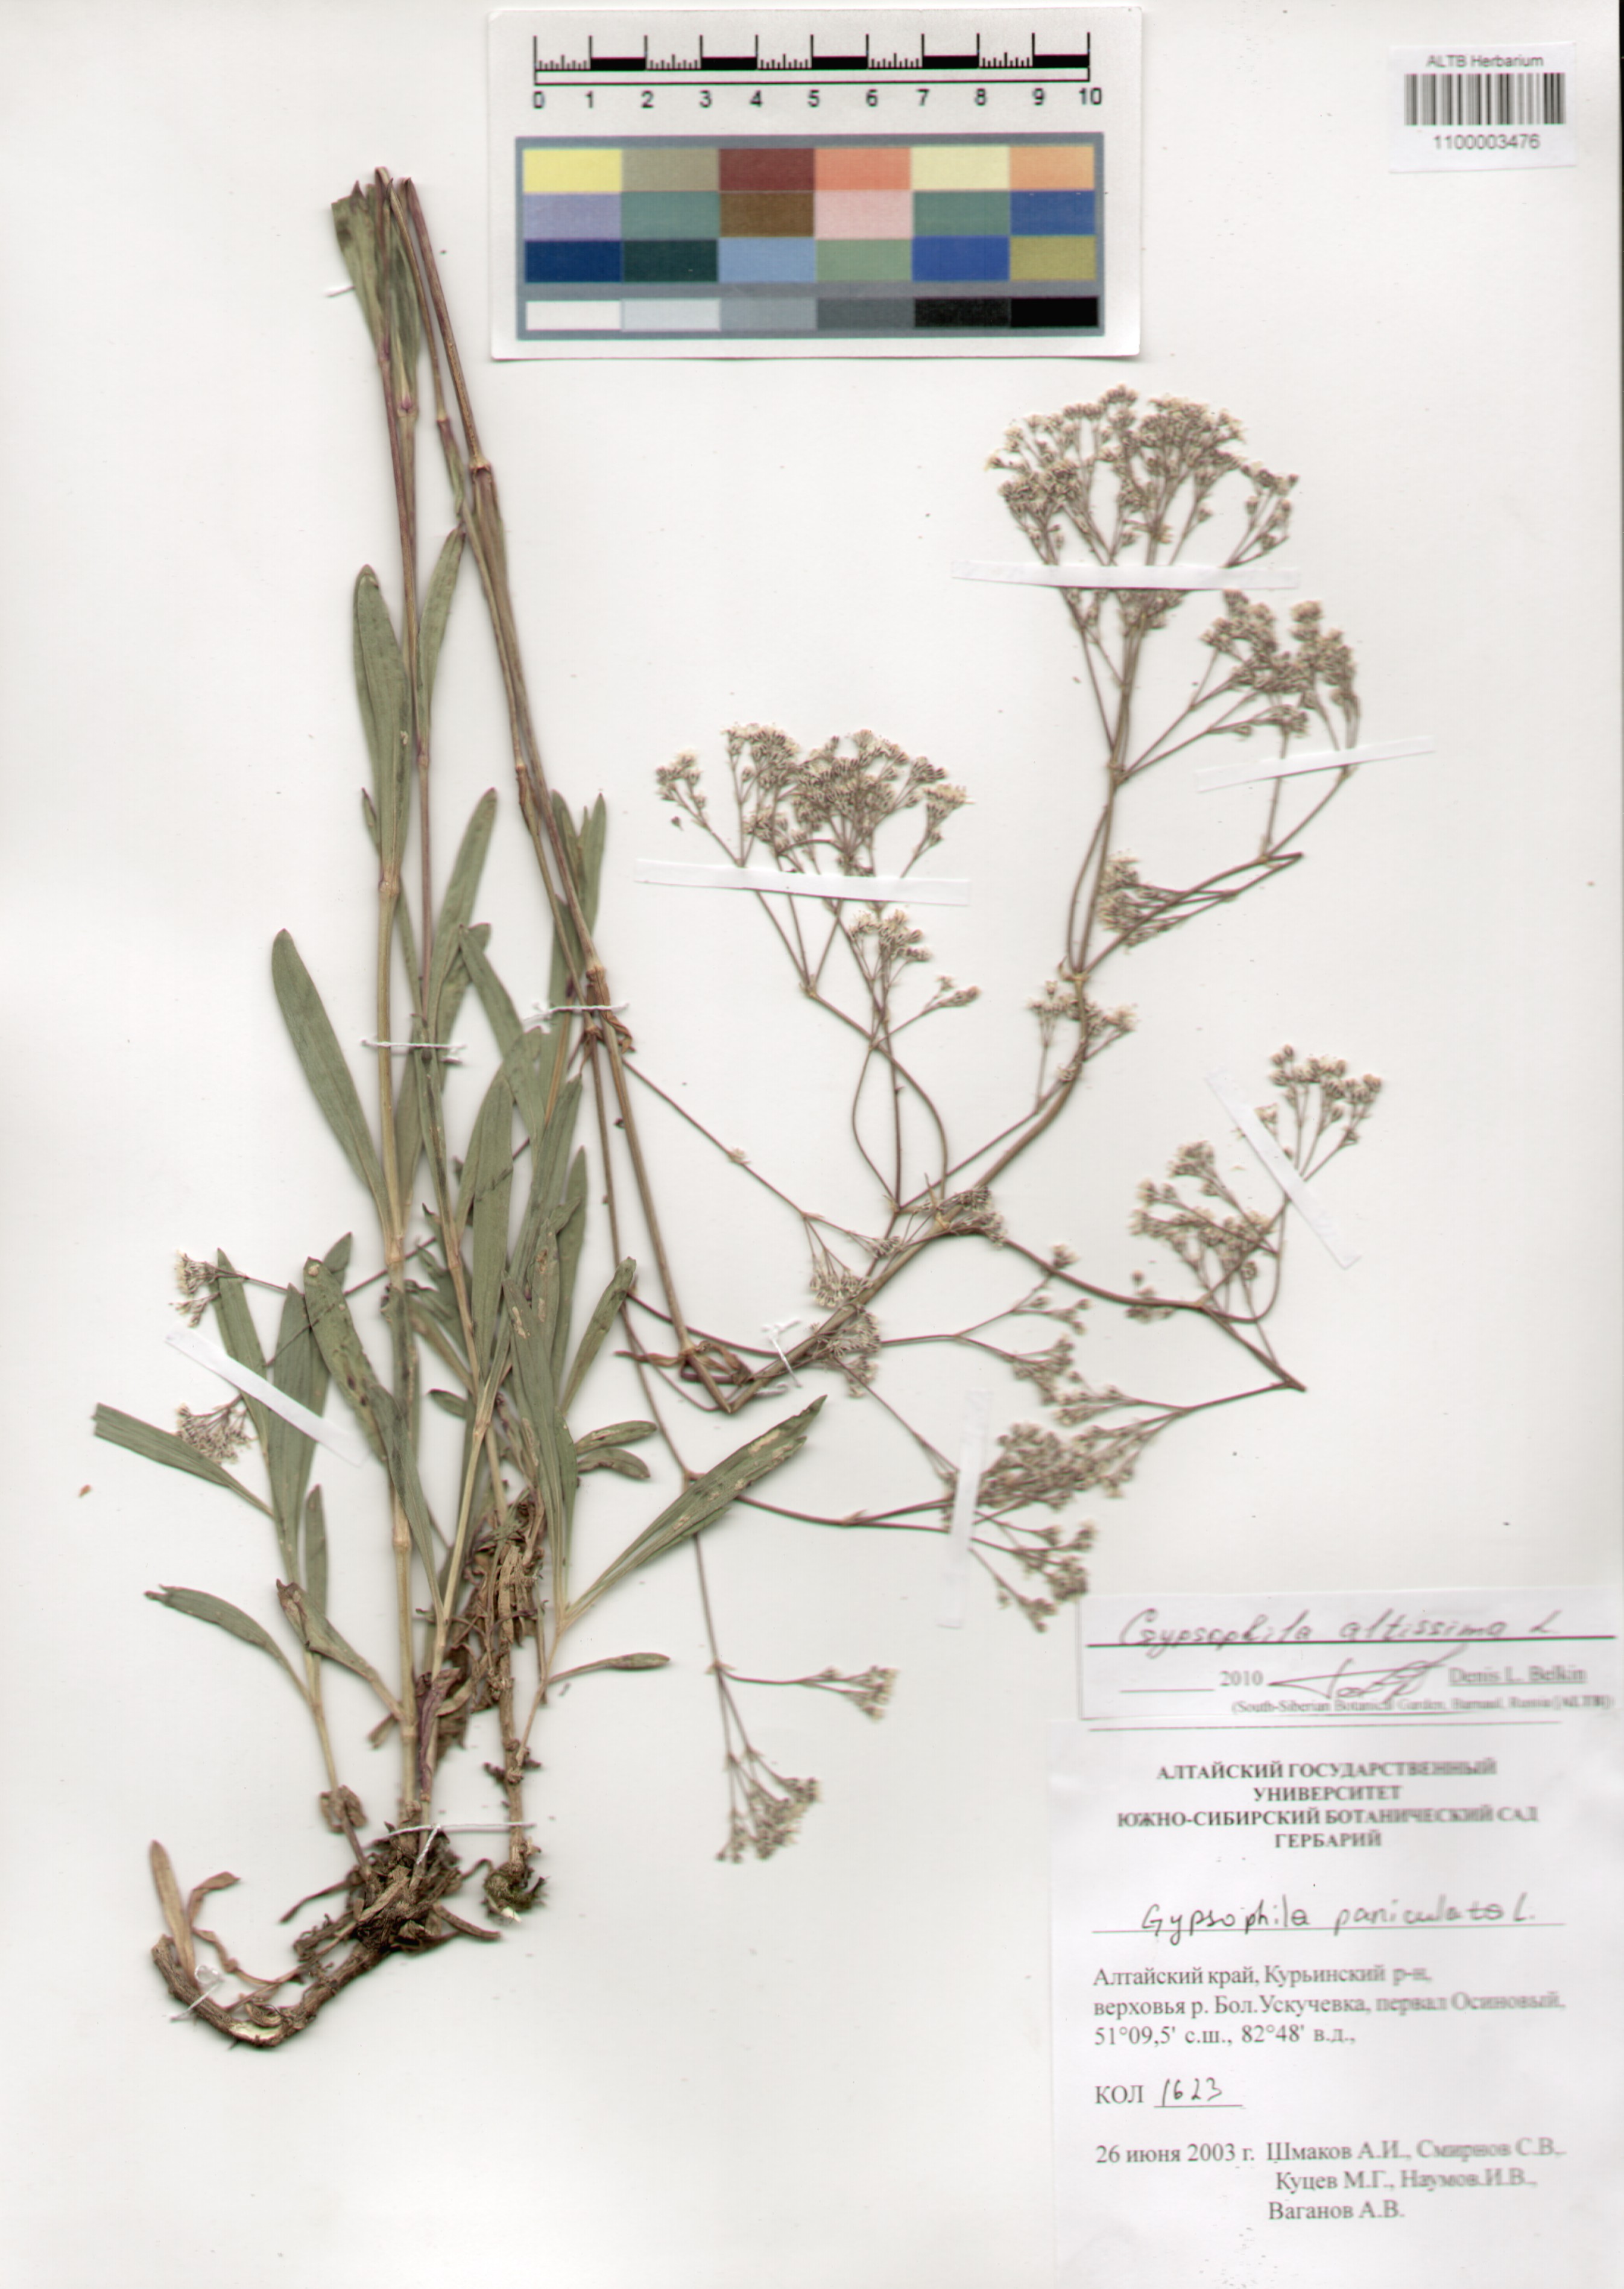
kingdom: Plantae
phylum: Tracheophyta
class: Magnoliopsida
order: Caryophyllales
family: Caryophyllaceae
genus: Gypsophila
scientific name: Gypsophila altissima
